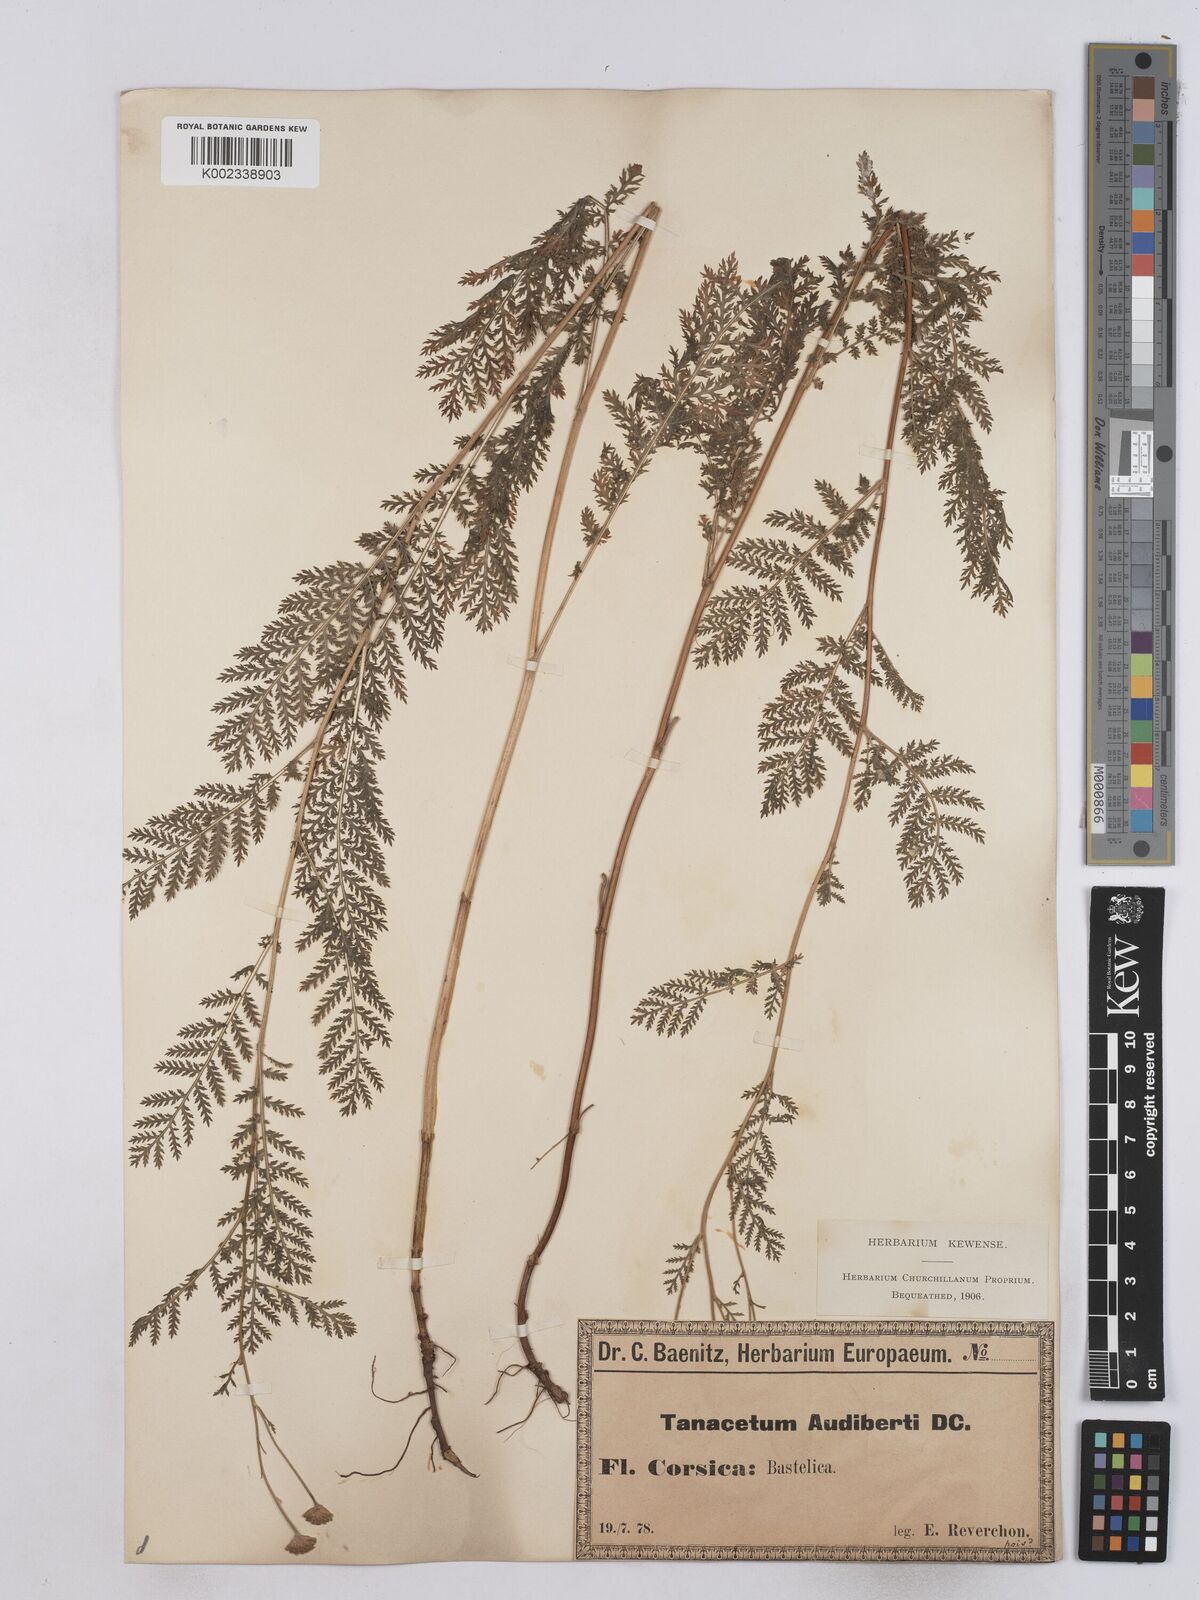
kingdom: Plantae
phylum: Tracheophyta
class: Magnoliopsida
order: Asterales
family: Asteraceae
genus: Tanacetum
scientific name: Tanacetum audibertii
